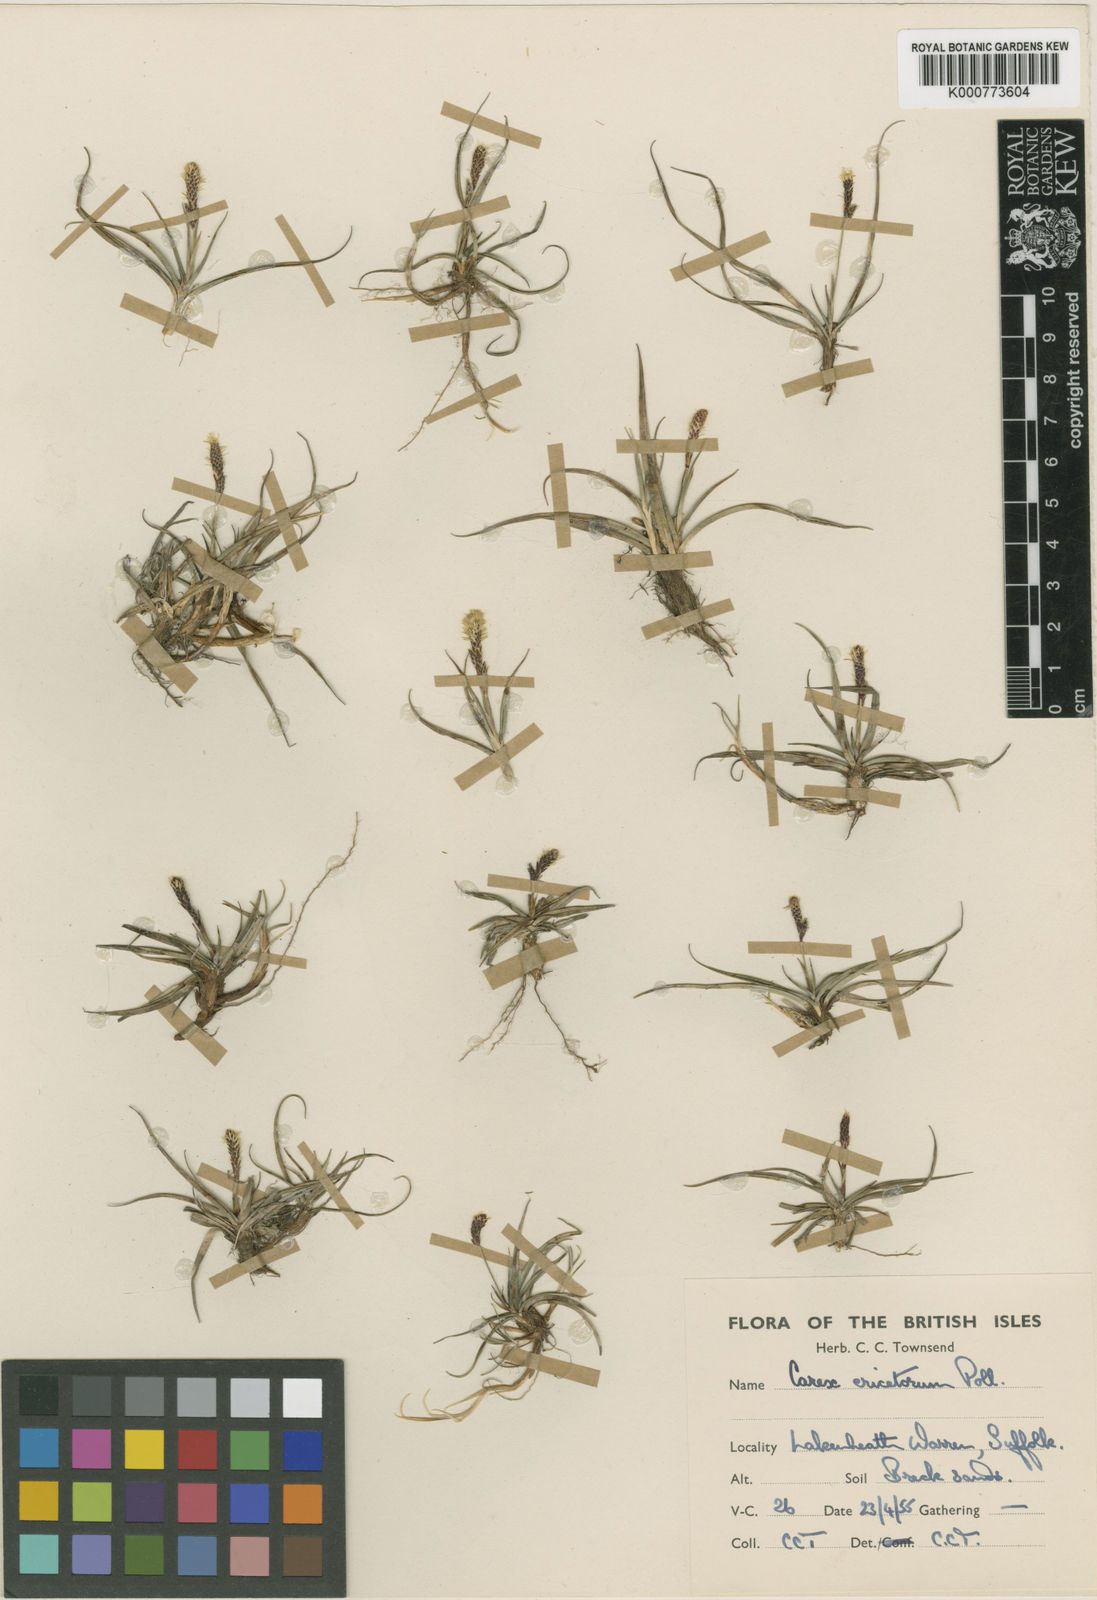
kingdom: Plantae
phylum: Tracheophyta
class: Liliopsida
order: Poales
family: Cyperaceae
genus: Carex
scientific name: Carex ericetorum
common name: Rare spring-sedge
